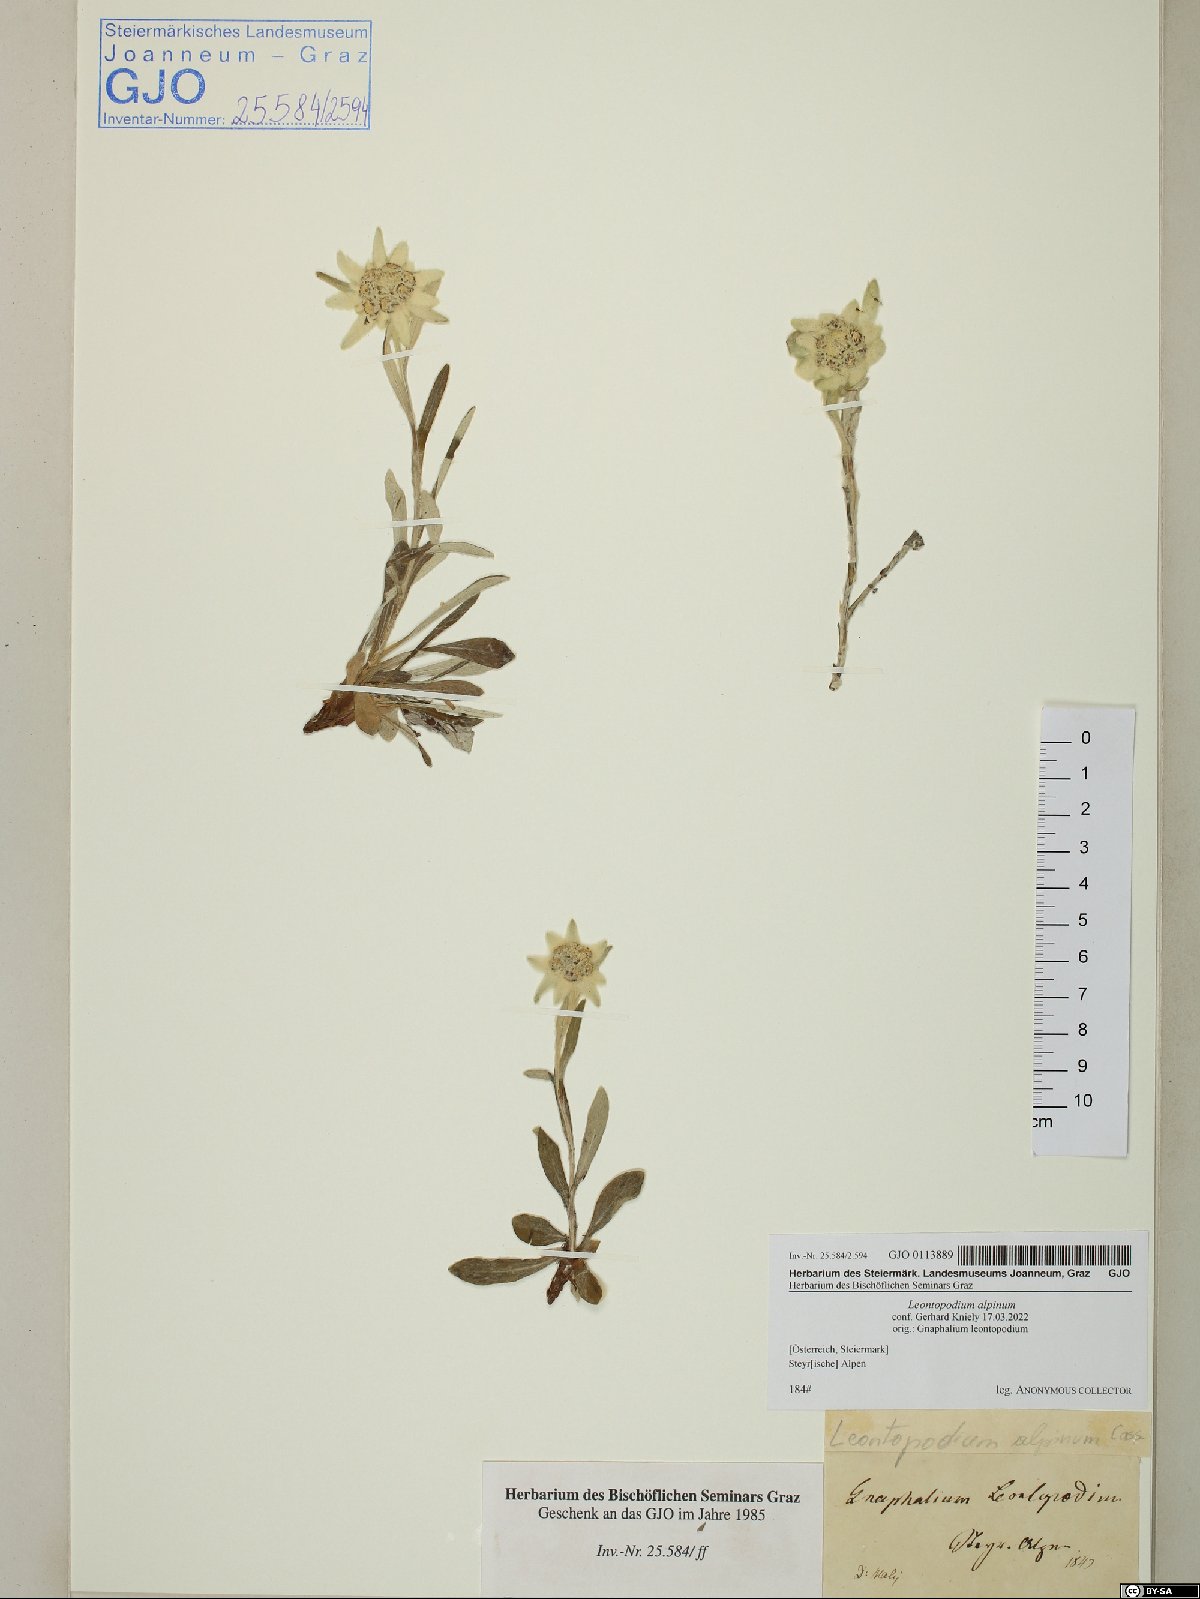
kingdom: Plantae
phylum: Tracheophyta
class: Magnoliopsida
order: Asterales
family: Asteraceae
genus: Leontopodium
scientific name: Leontopodium nivale
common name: Edelweiss
